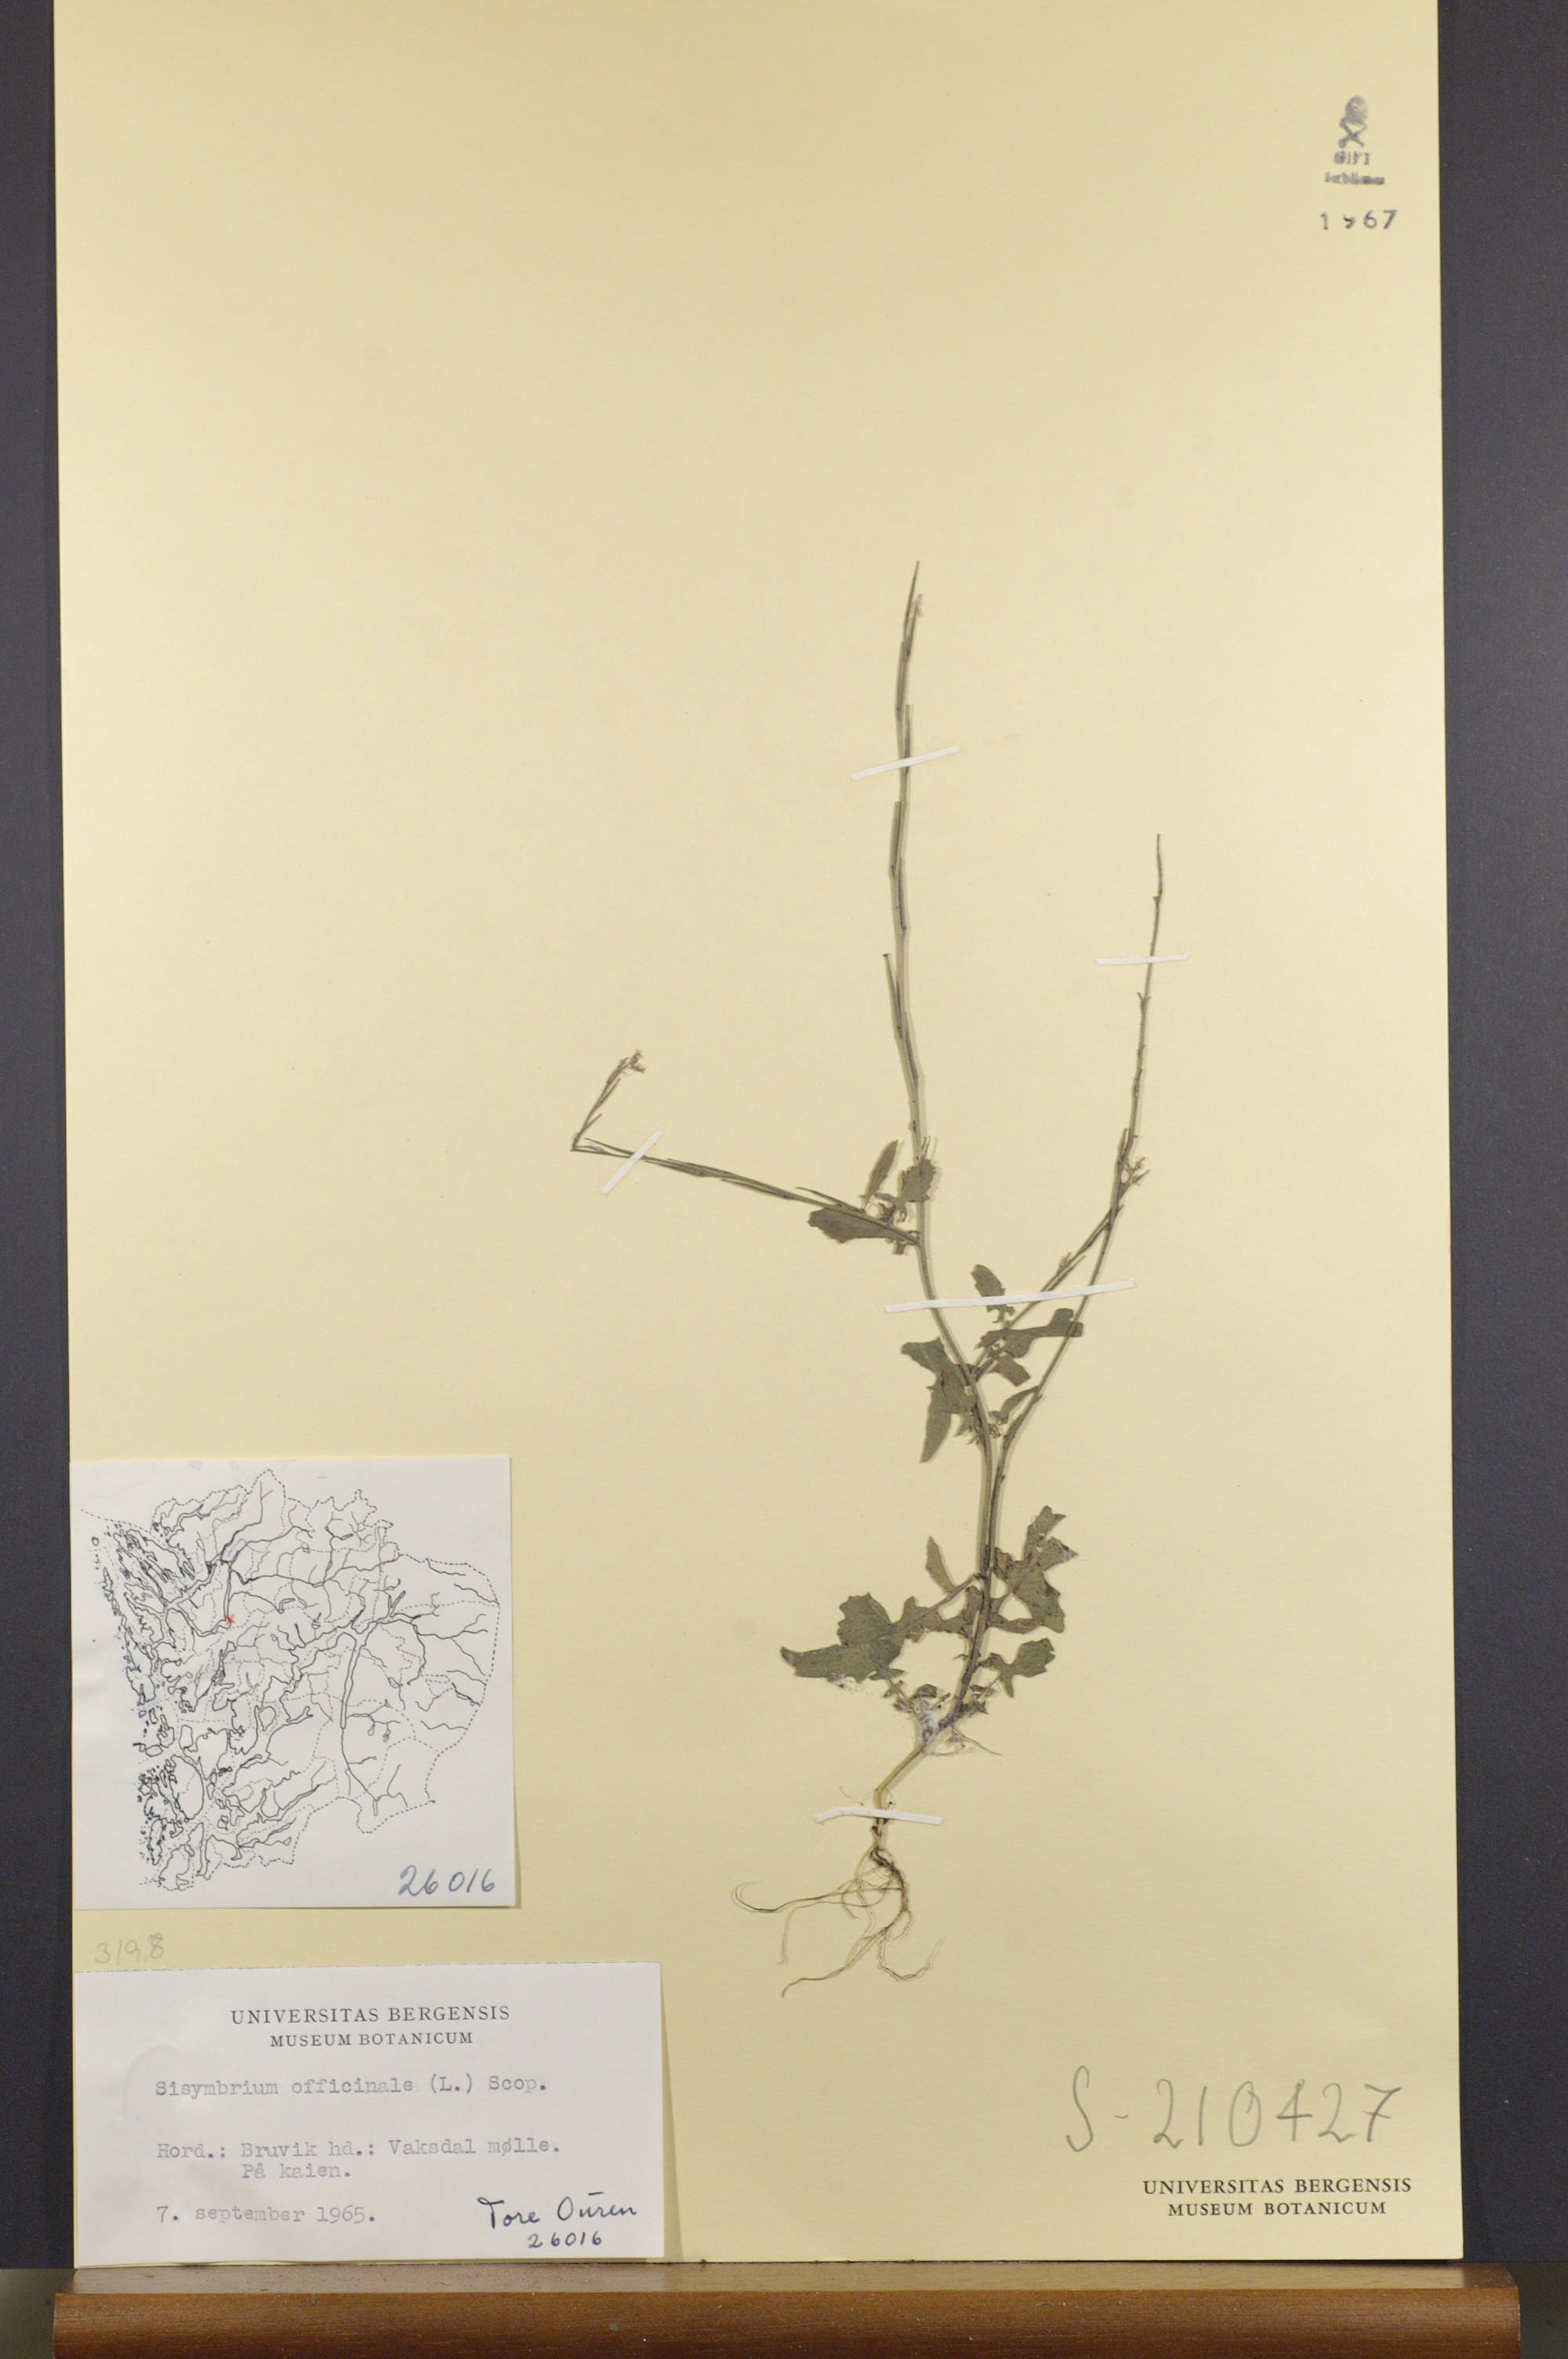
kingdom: Plantae
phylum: Tracheophyta
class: Magnoliopsida
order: Brassicales
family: Brassicaceae
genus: Sisymbrium
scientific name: Sisymbrium officinale
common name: Hedge mustard
